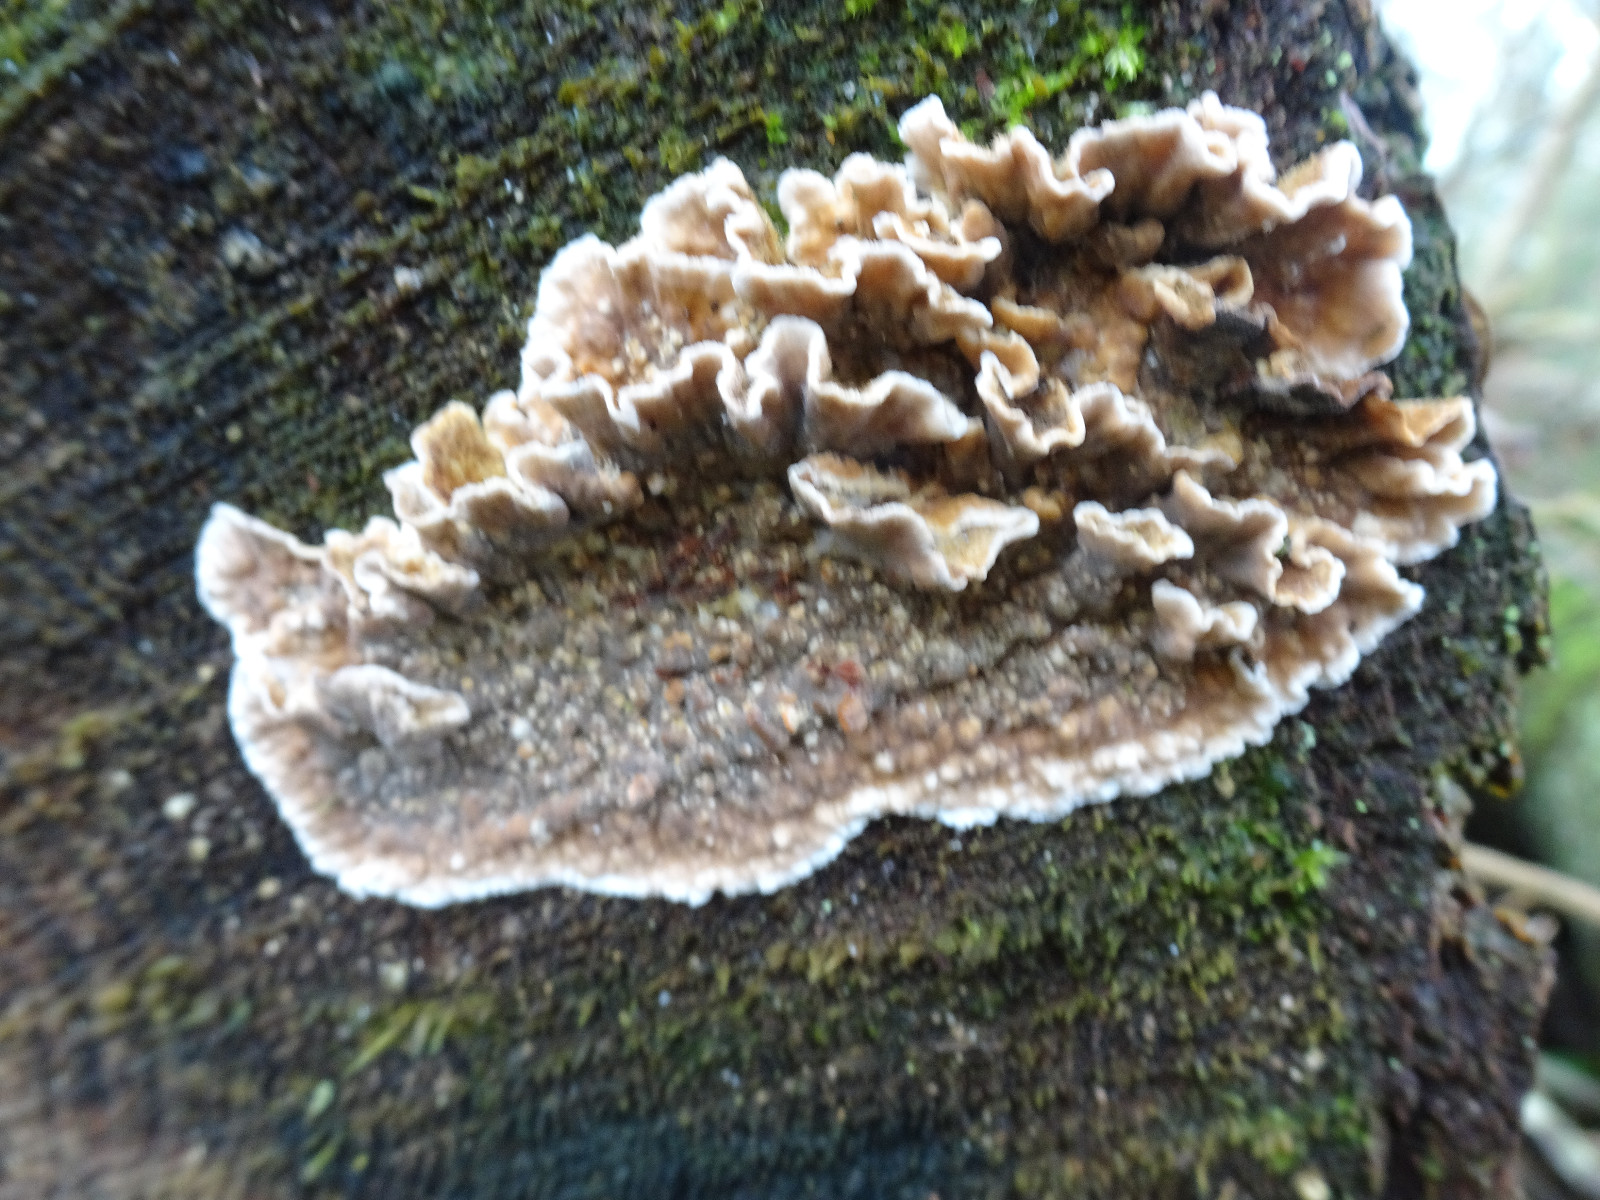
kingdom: Fungi
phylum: Basidiomycota
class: Agaricomycetes
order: Russulales
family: Stereaceae
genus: Stereum
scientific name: Stereum sanguinolentum
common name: blødende lædersvamp
